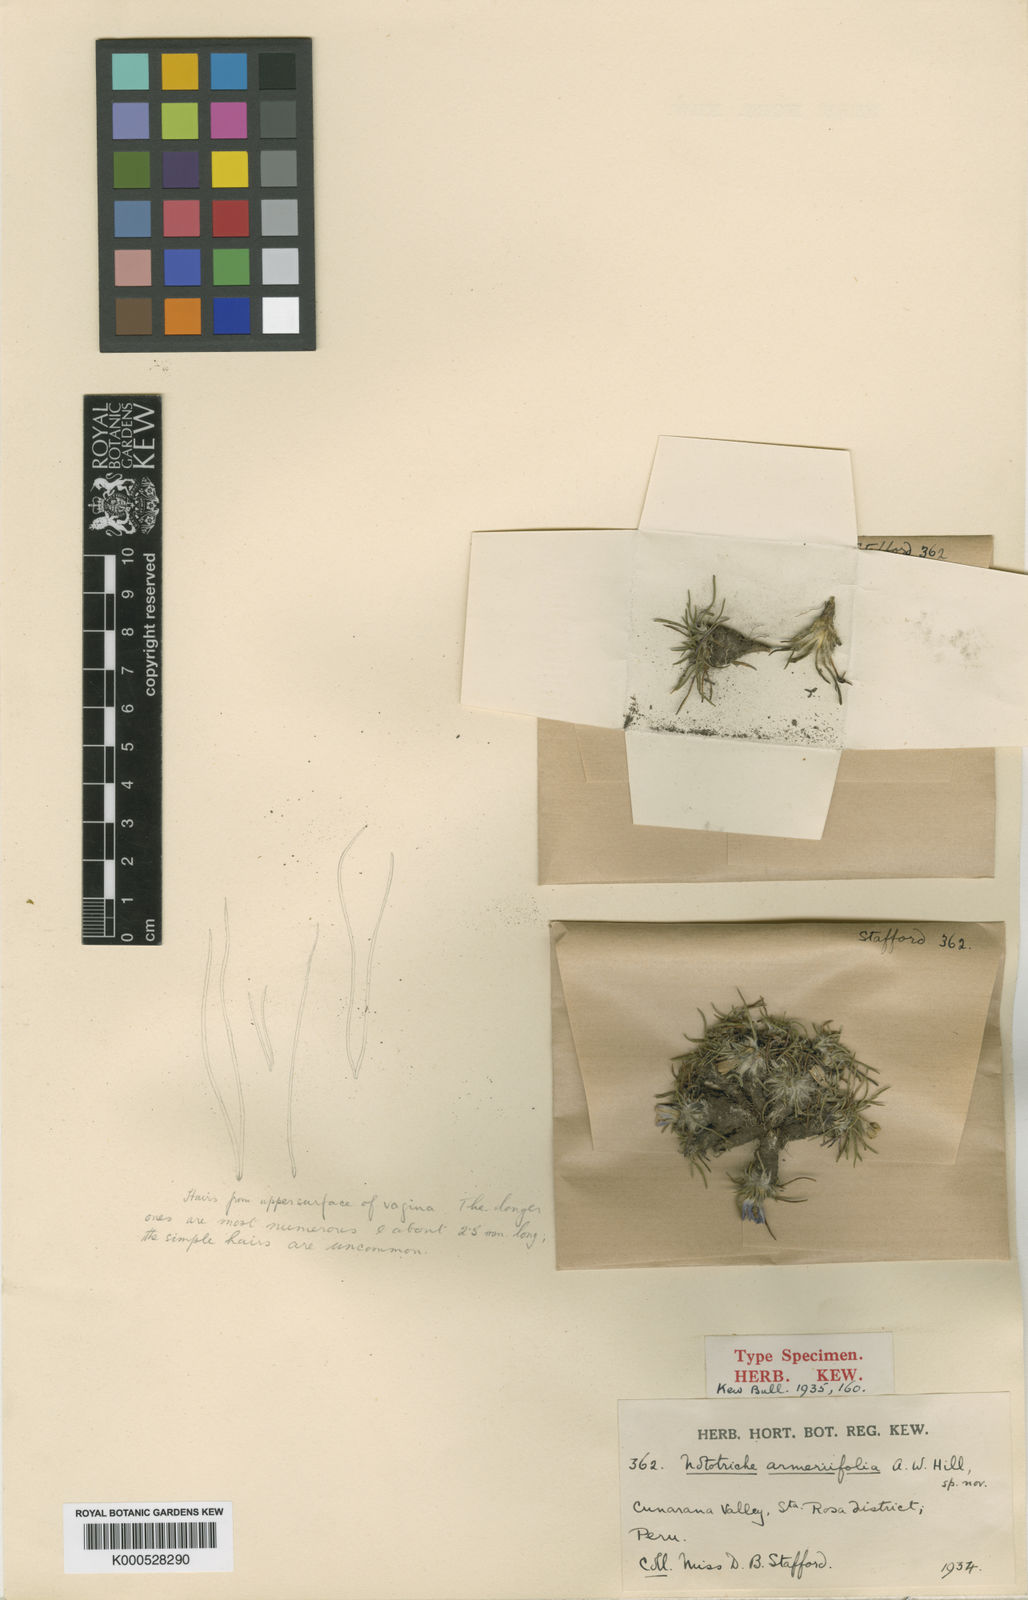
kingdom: Plantae
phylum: Tracheophyta
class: Magnoliopsida
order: Malvales
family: Malvaceae
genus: Nototriche
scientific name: Nototriche armeriifolia
